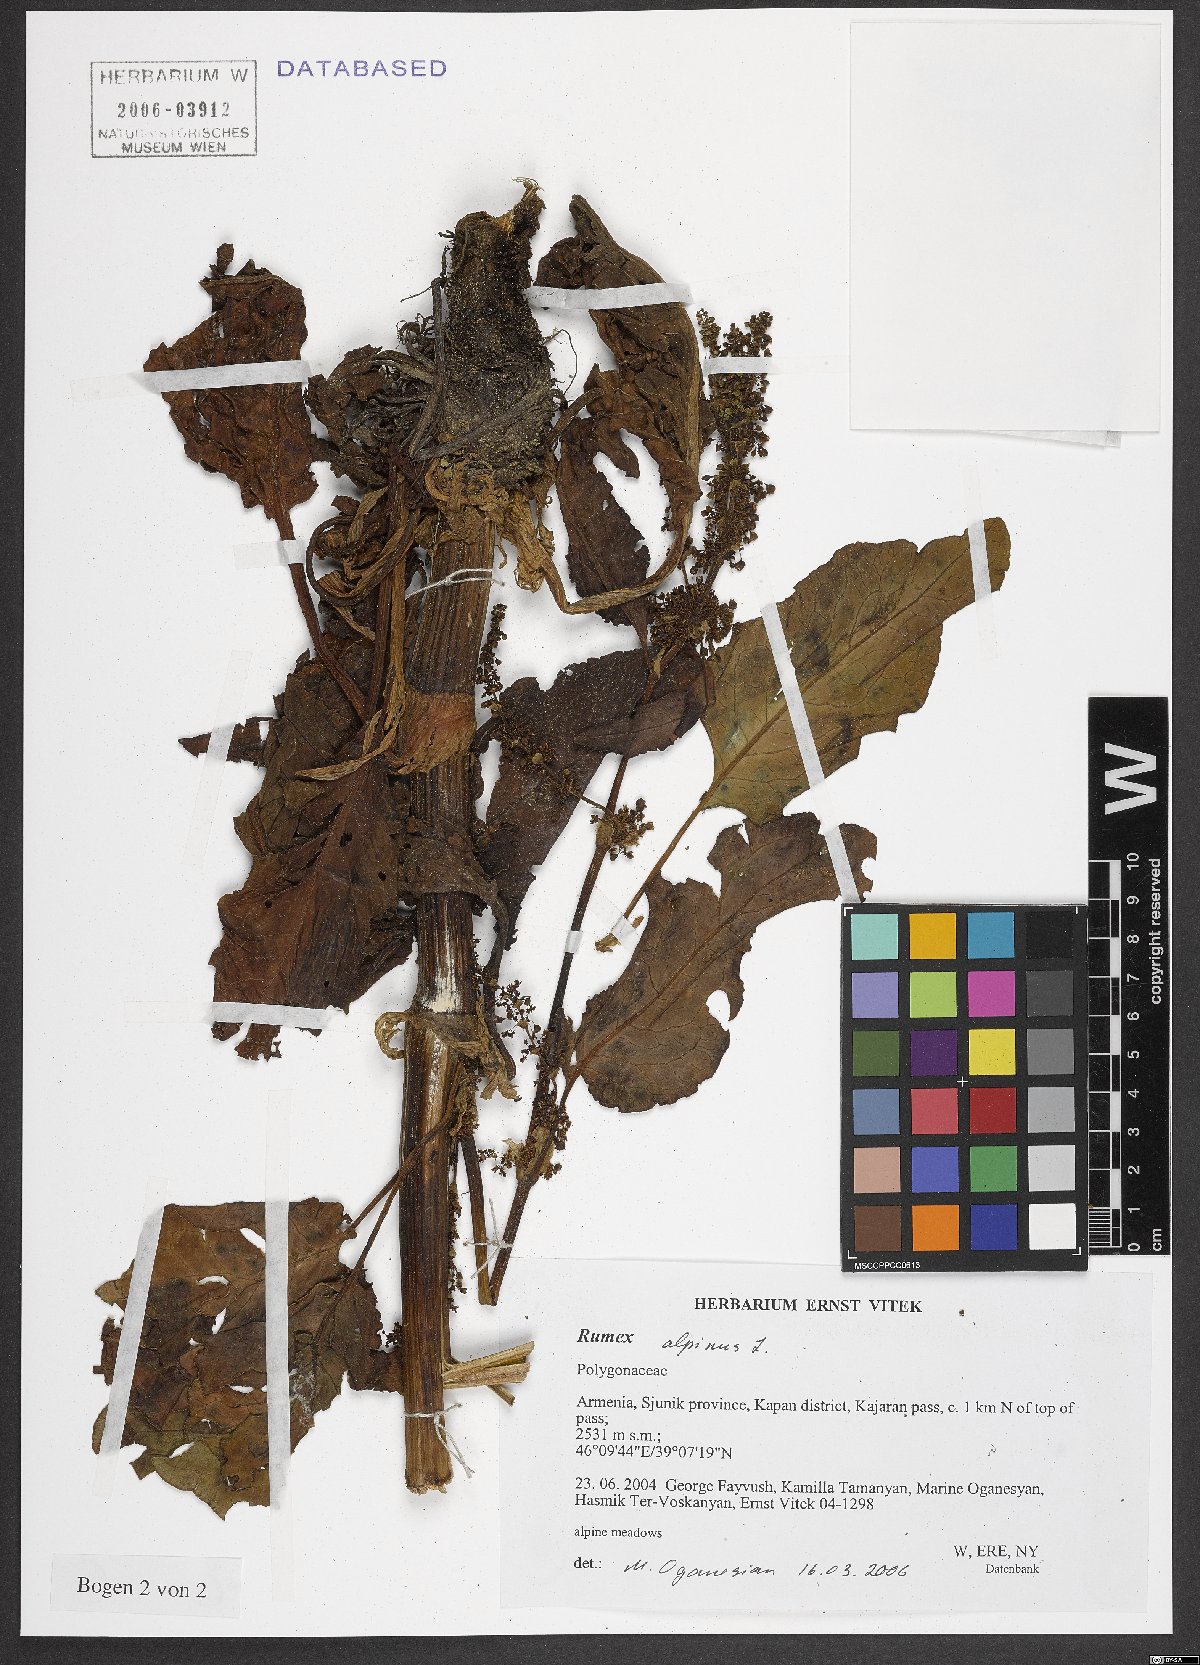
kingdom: Plantae
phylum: Tracheophyta
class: Magnoliopsida
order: Caryophyllales
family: Polygonaceae
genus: Rumex
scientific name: Rumex alpinus
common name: Alpine dock
